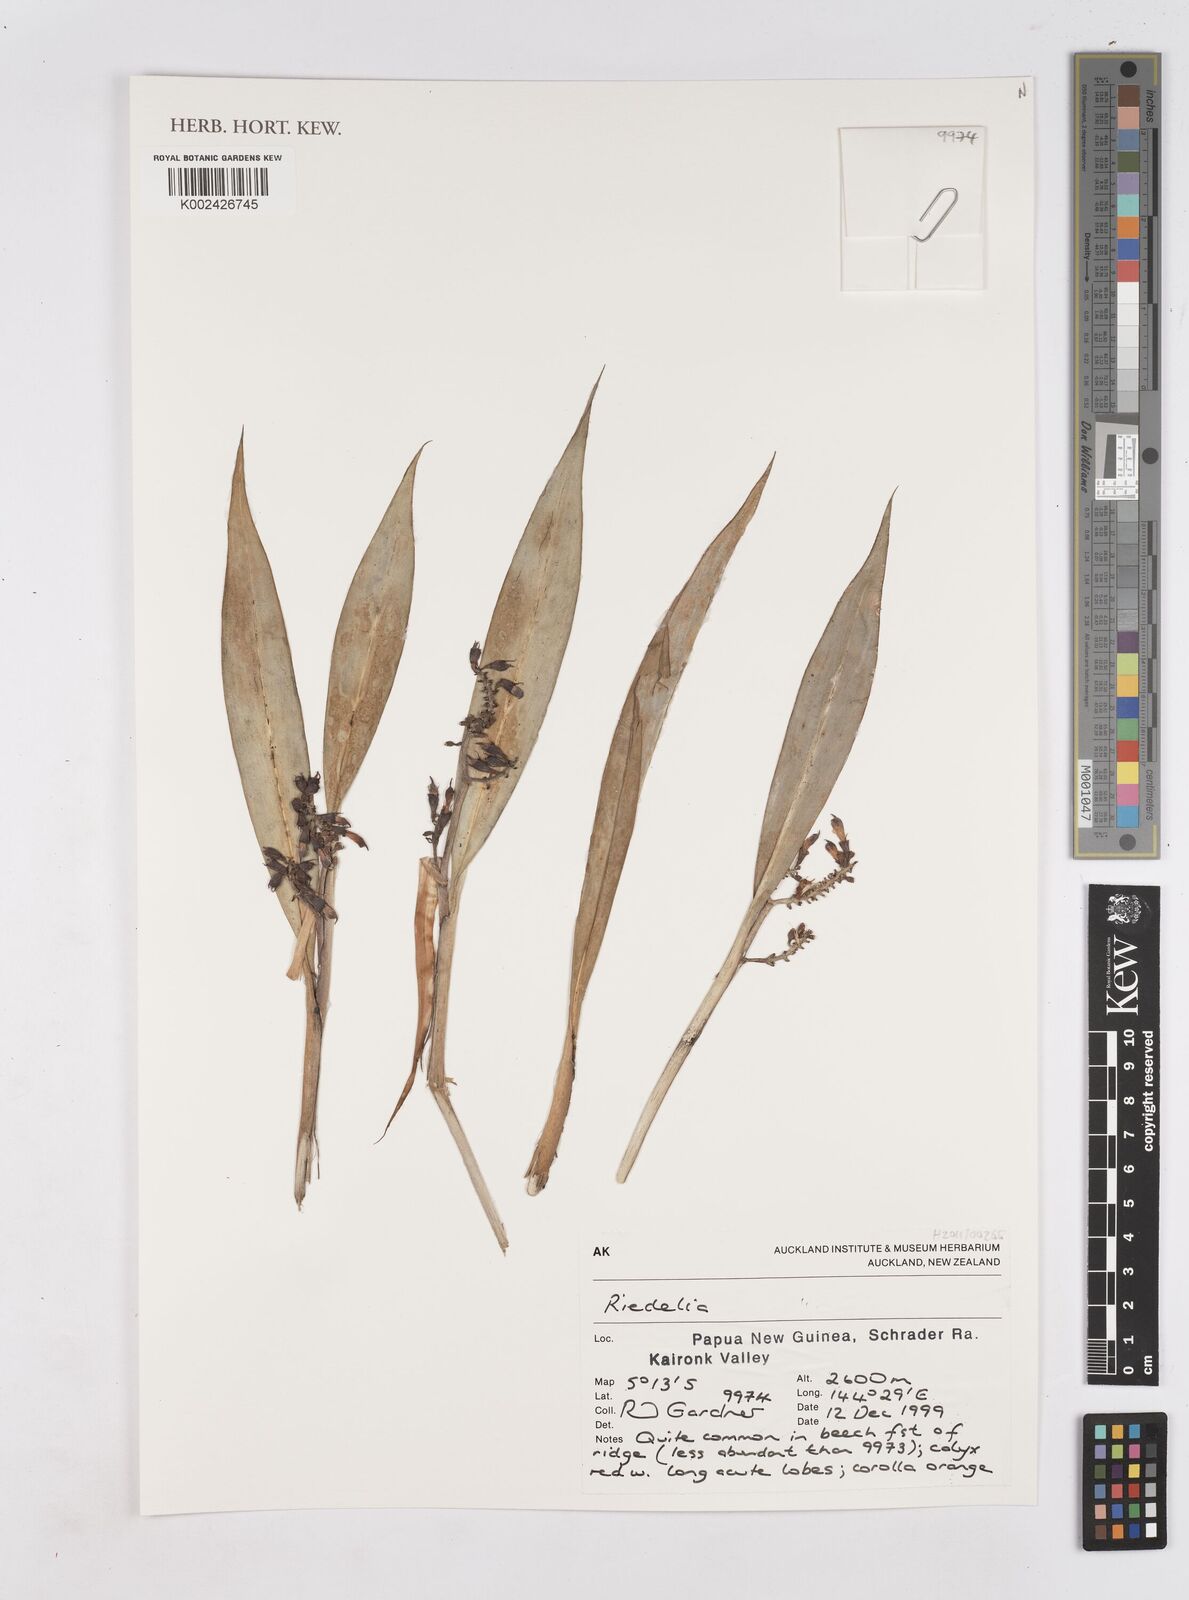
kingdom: Plantae
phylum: Tracheophyta
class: Liliopsida
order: Zingiberales
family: Zingiberaceae
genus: Riedelia
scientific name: Riedelia
